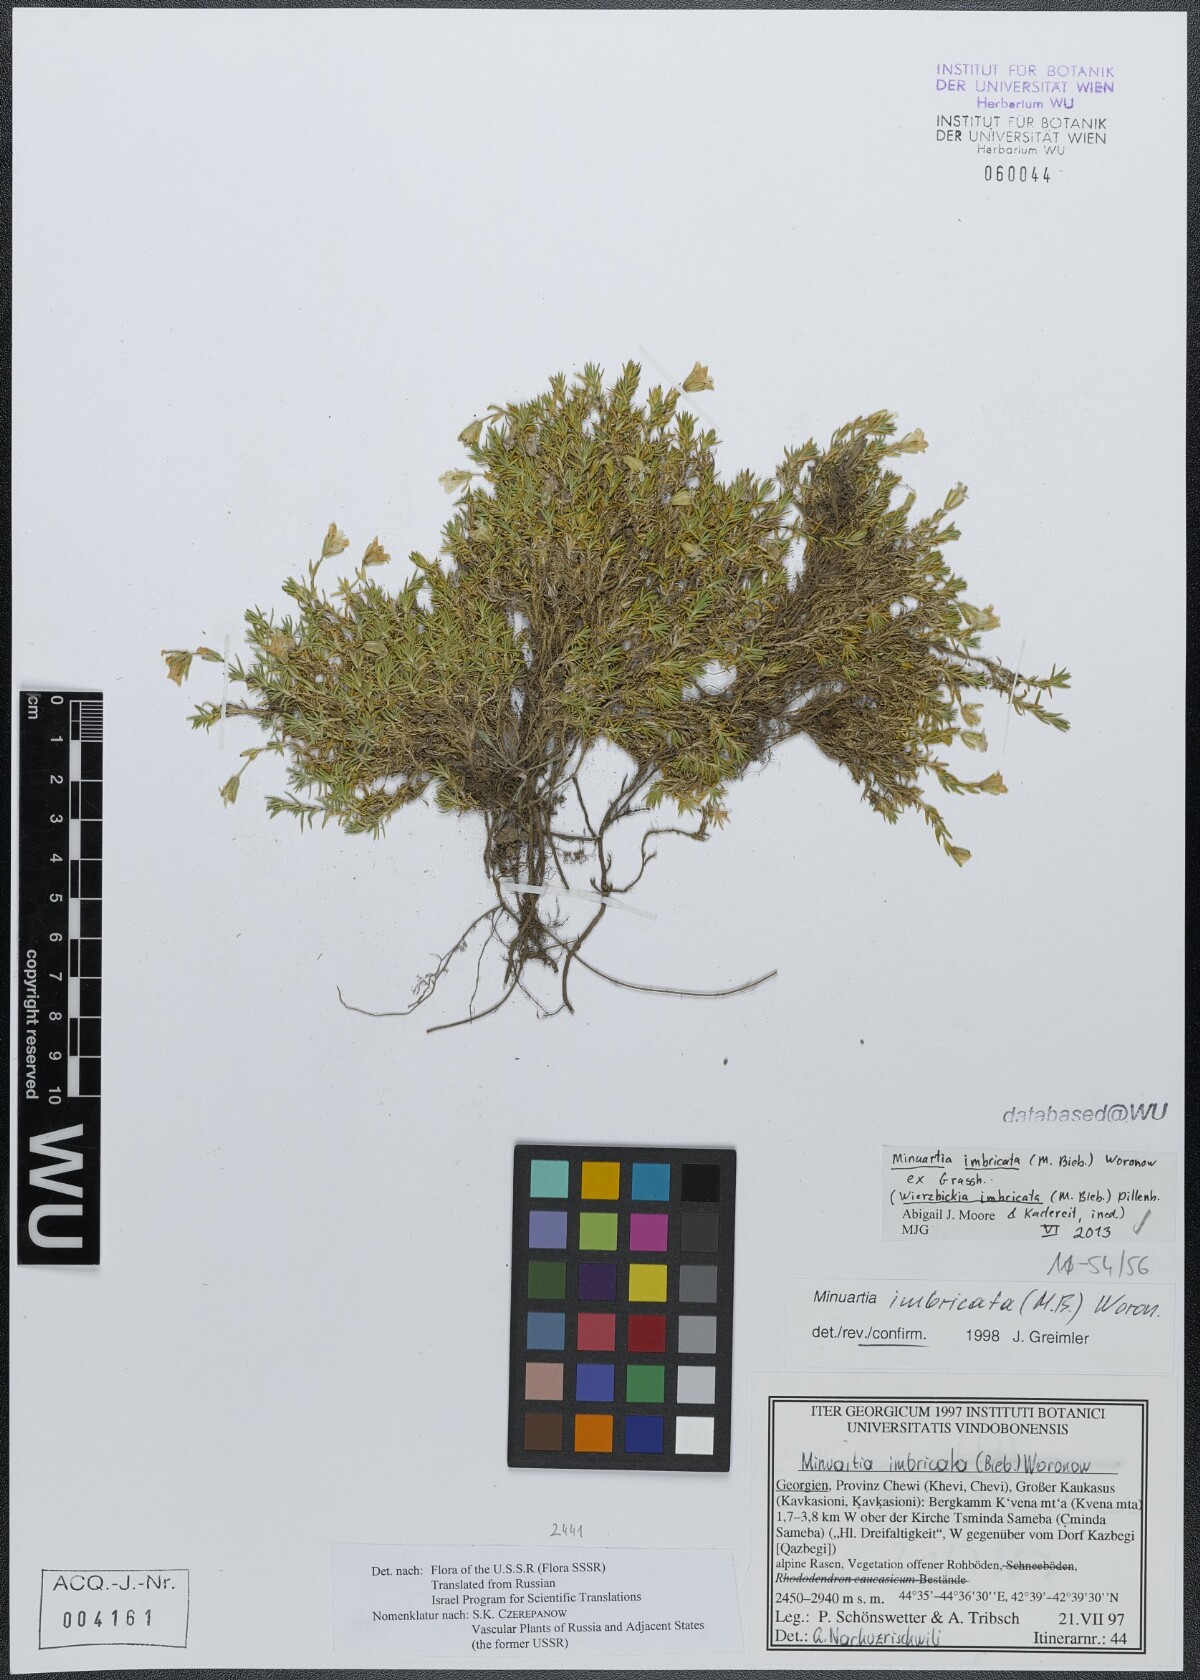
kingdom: Plantae
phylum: Tracheophyta
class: Magnoliopsida
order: Caryophyllales
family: Caryophyllaceae
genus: Pseudocherleria
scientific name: Pseudocherleria imbricata
